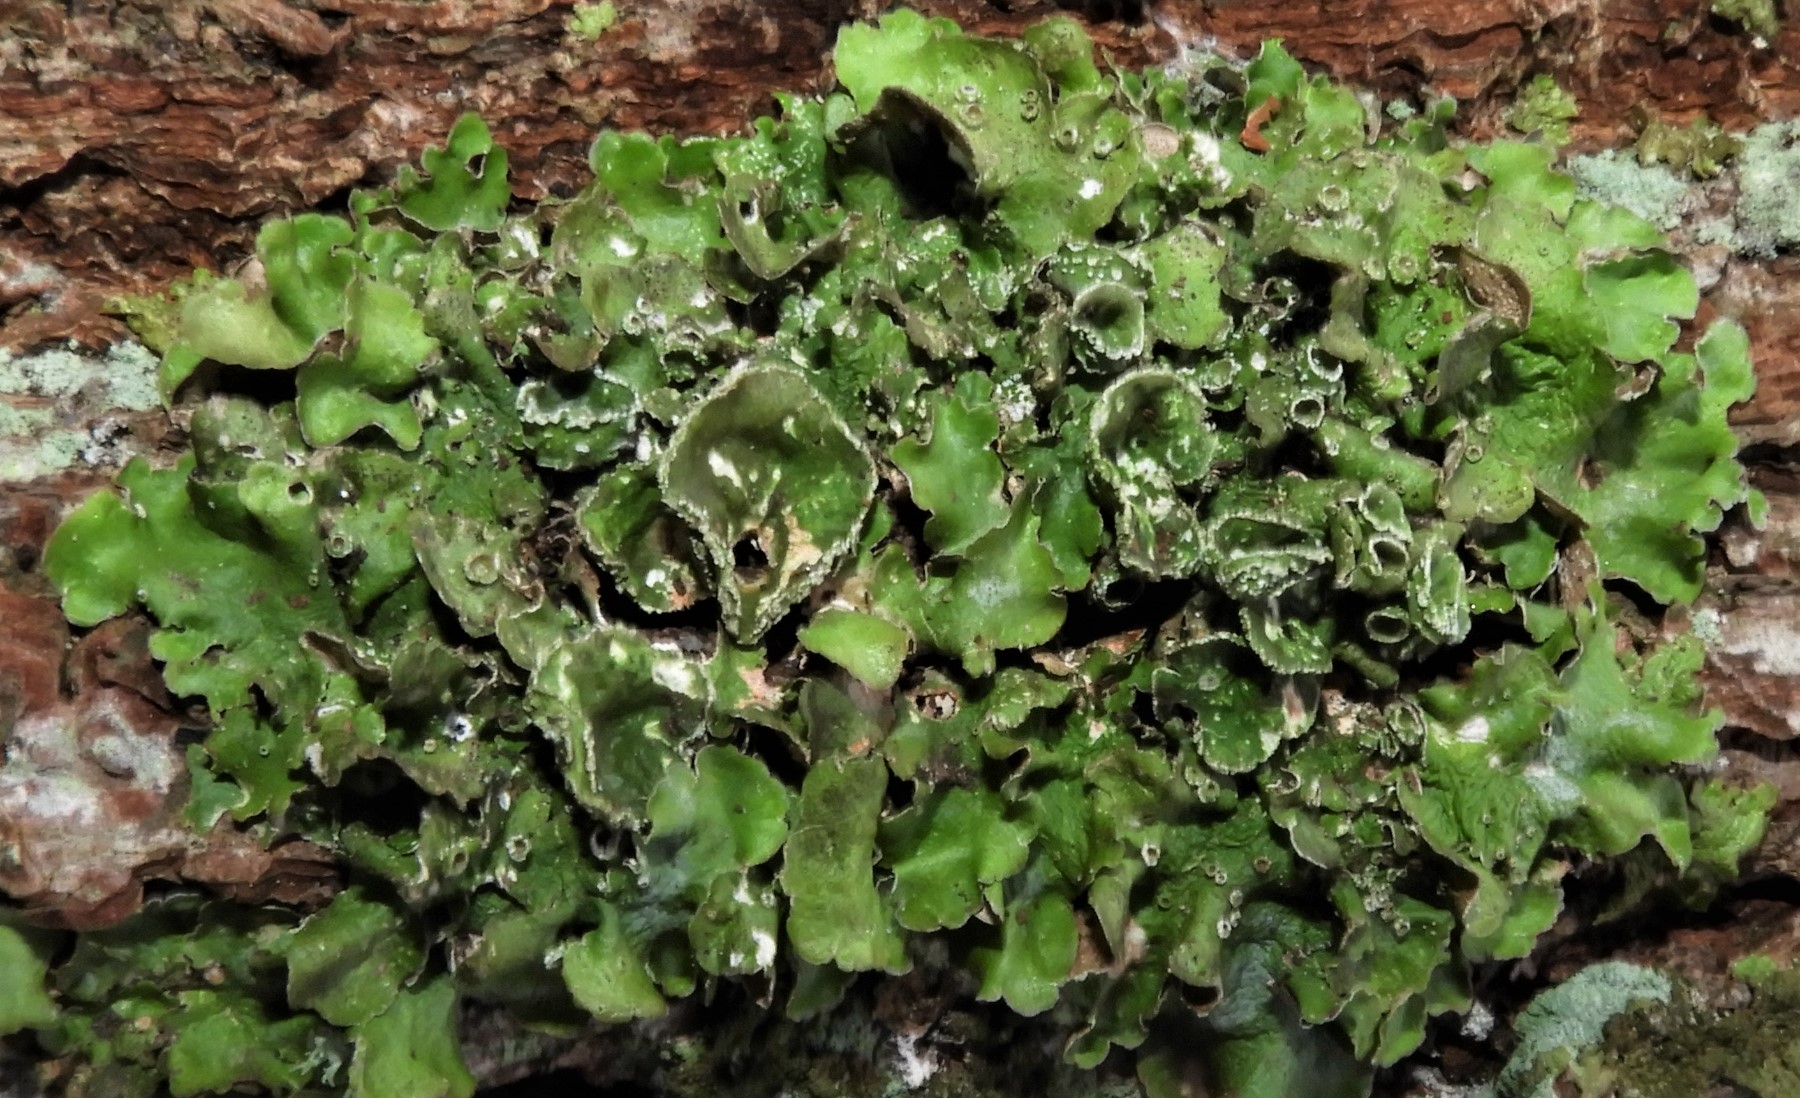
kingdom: Fungi
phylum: Ascomycota
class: Lecanoromycetes
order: Lecanorales
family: Parmeliaceae
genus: Pleurosticta
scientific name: Pleurosticta acetabulum
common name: stor skållav
